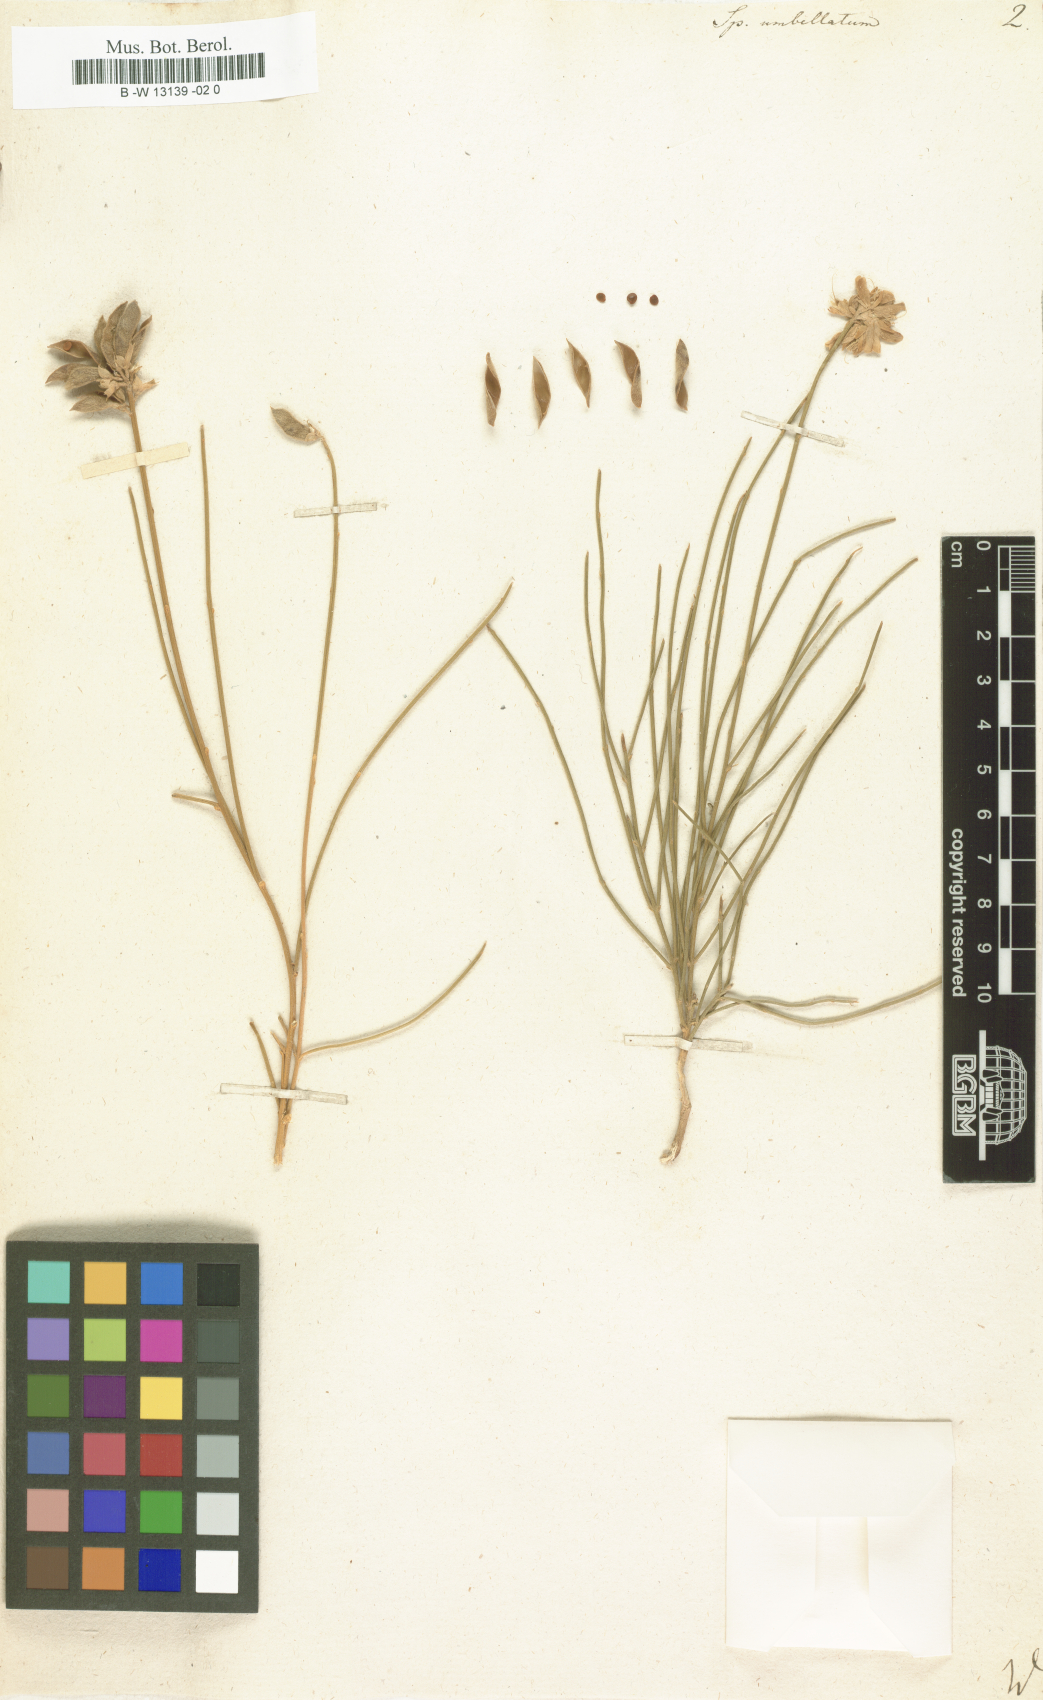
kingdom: Plantae
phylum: Tracheophyta
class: Magnoliopsida
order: Fabales
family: Fabaceae
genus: Genista
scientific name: Genista umbellata
